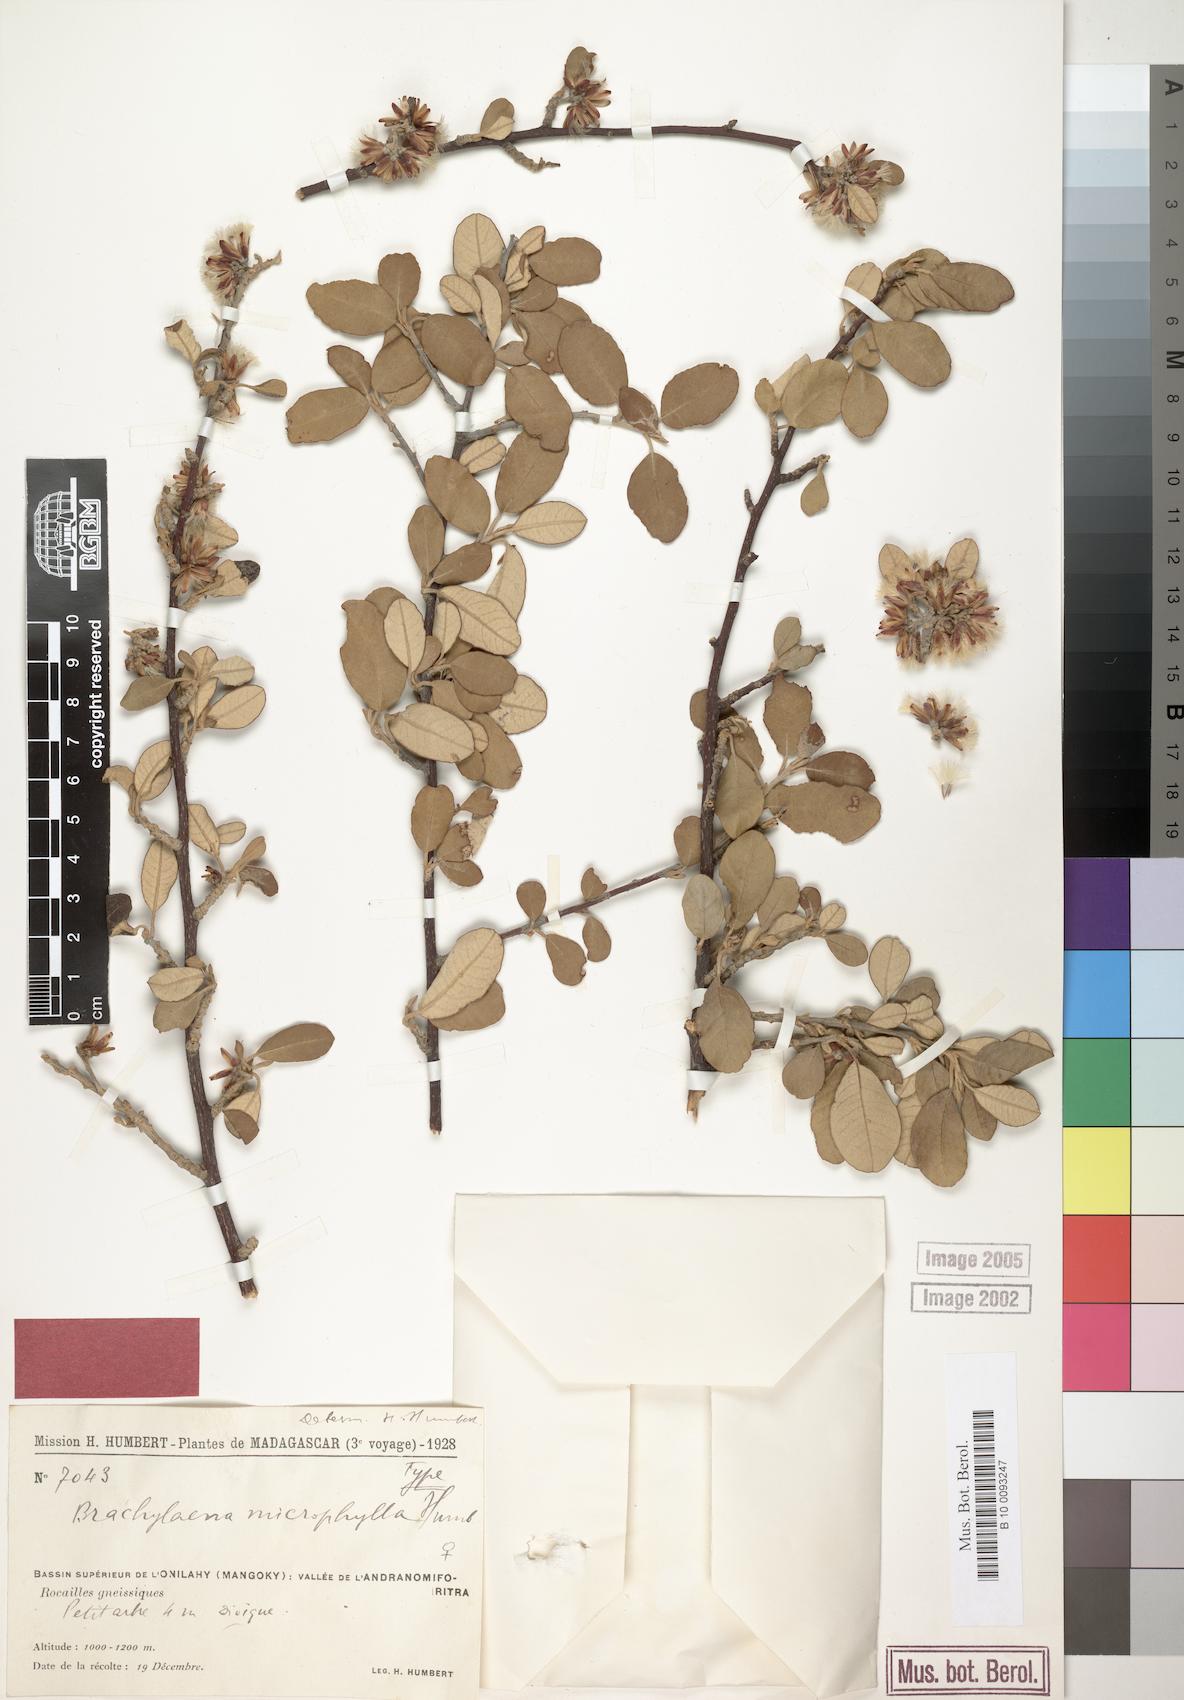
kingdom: Plantae
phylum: Tracheophyta
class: Magnoliopsida
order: Asterales
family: Asteraceae
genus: Brachylaena
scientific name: Brachylaena microphylla
